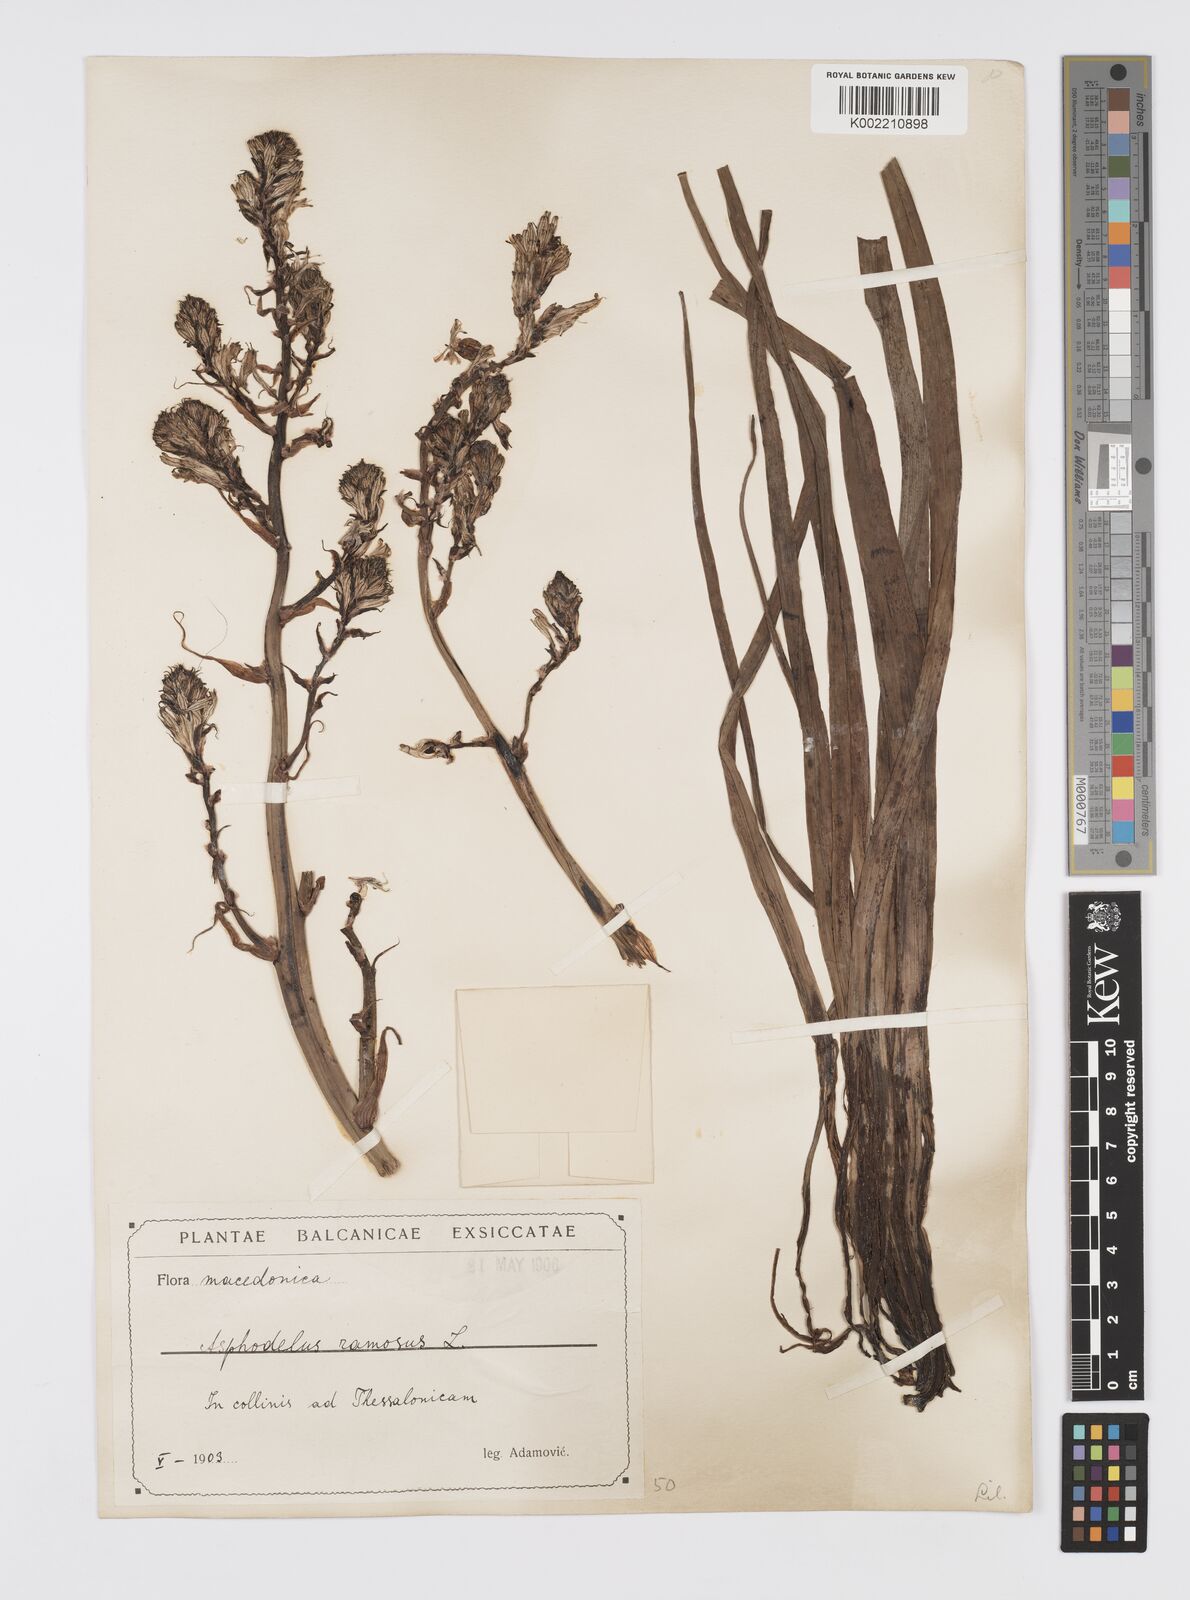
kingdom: Plantae
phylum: Tracheophyta
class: Liliopsida
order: Asparagales
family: Asphodelaceae
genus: Asphodelus
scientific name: Asphodelus ramosus
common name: Silverrod
